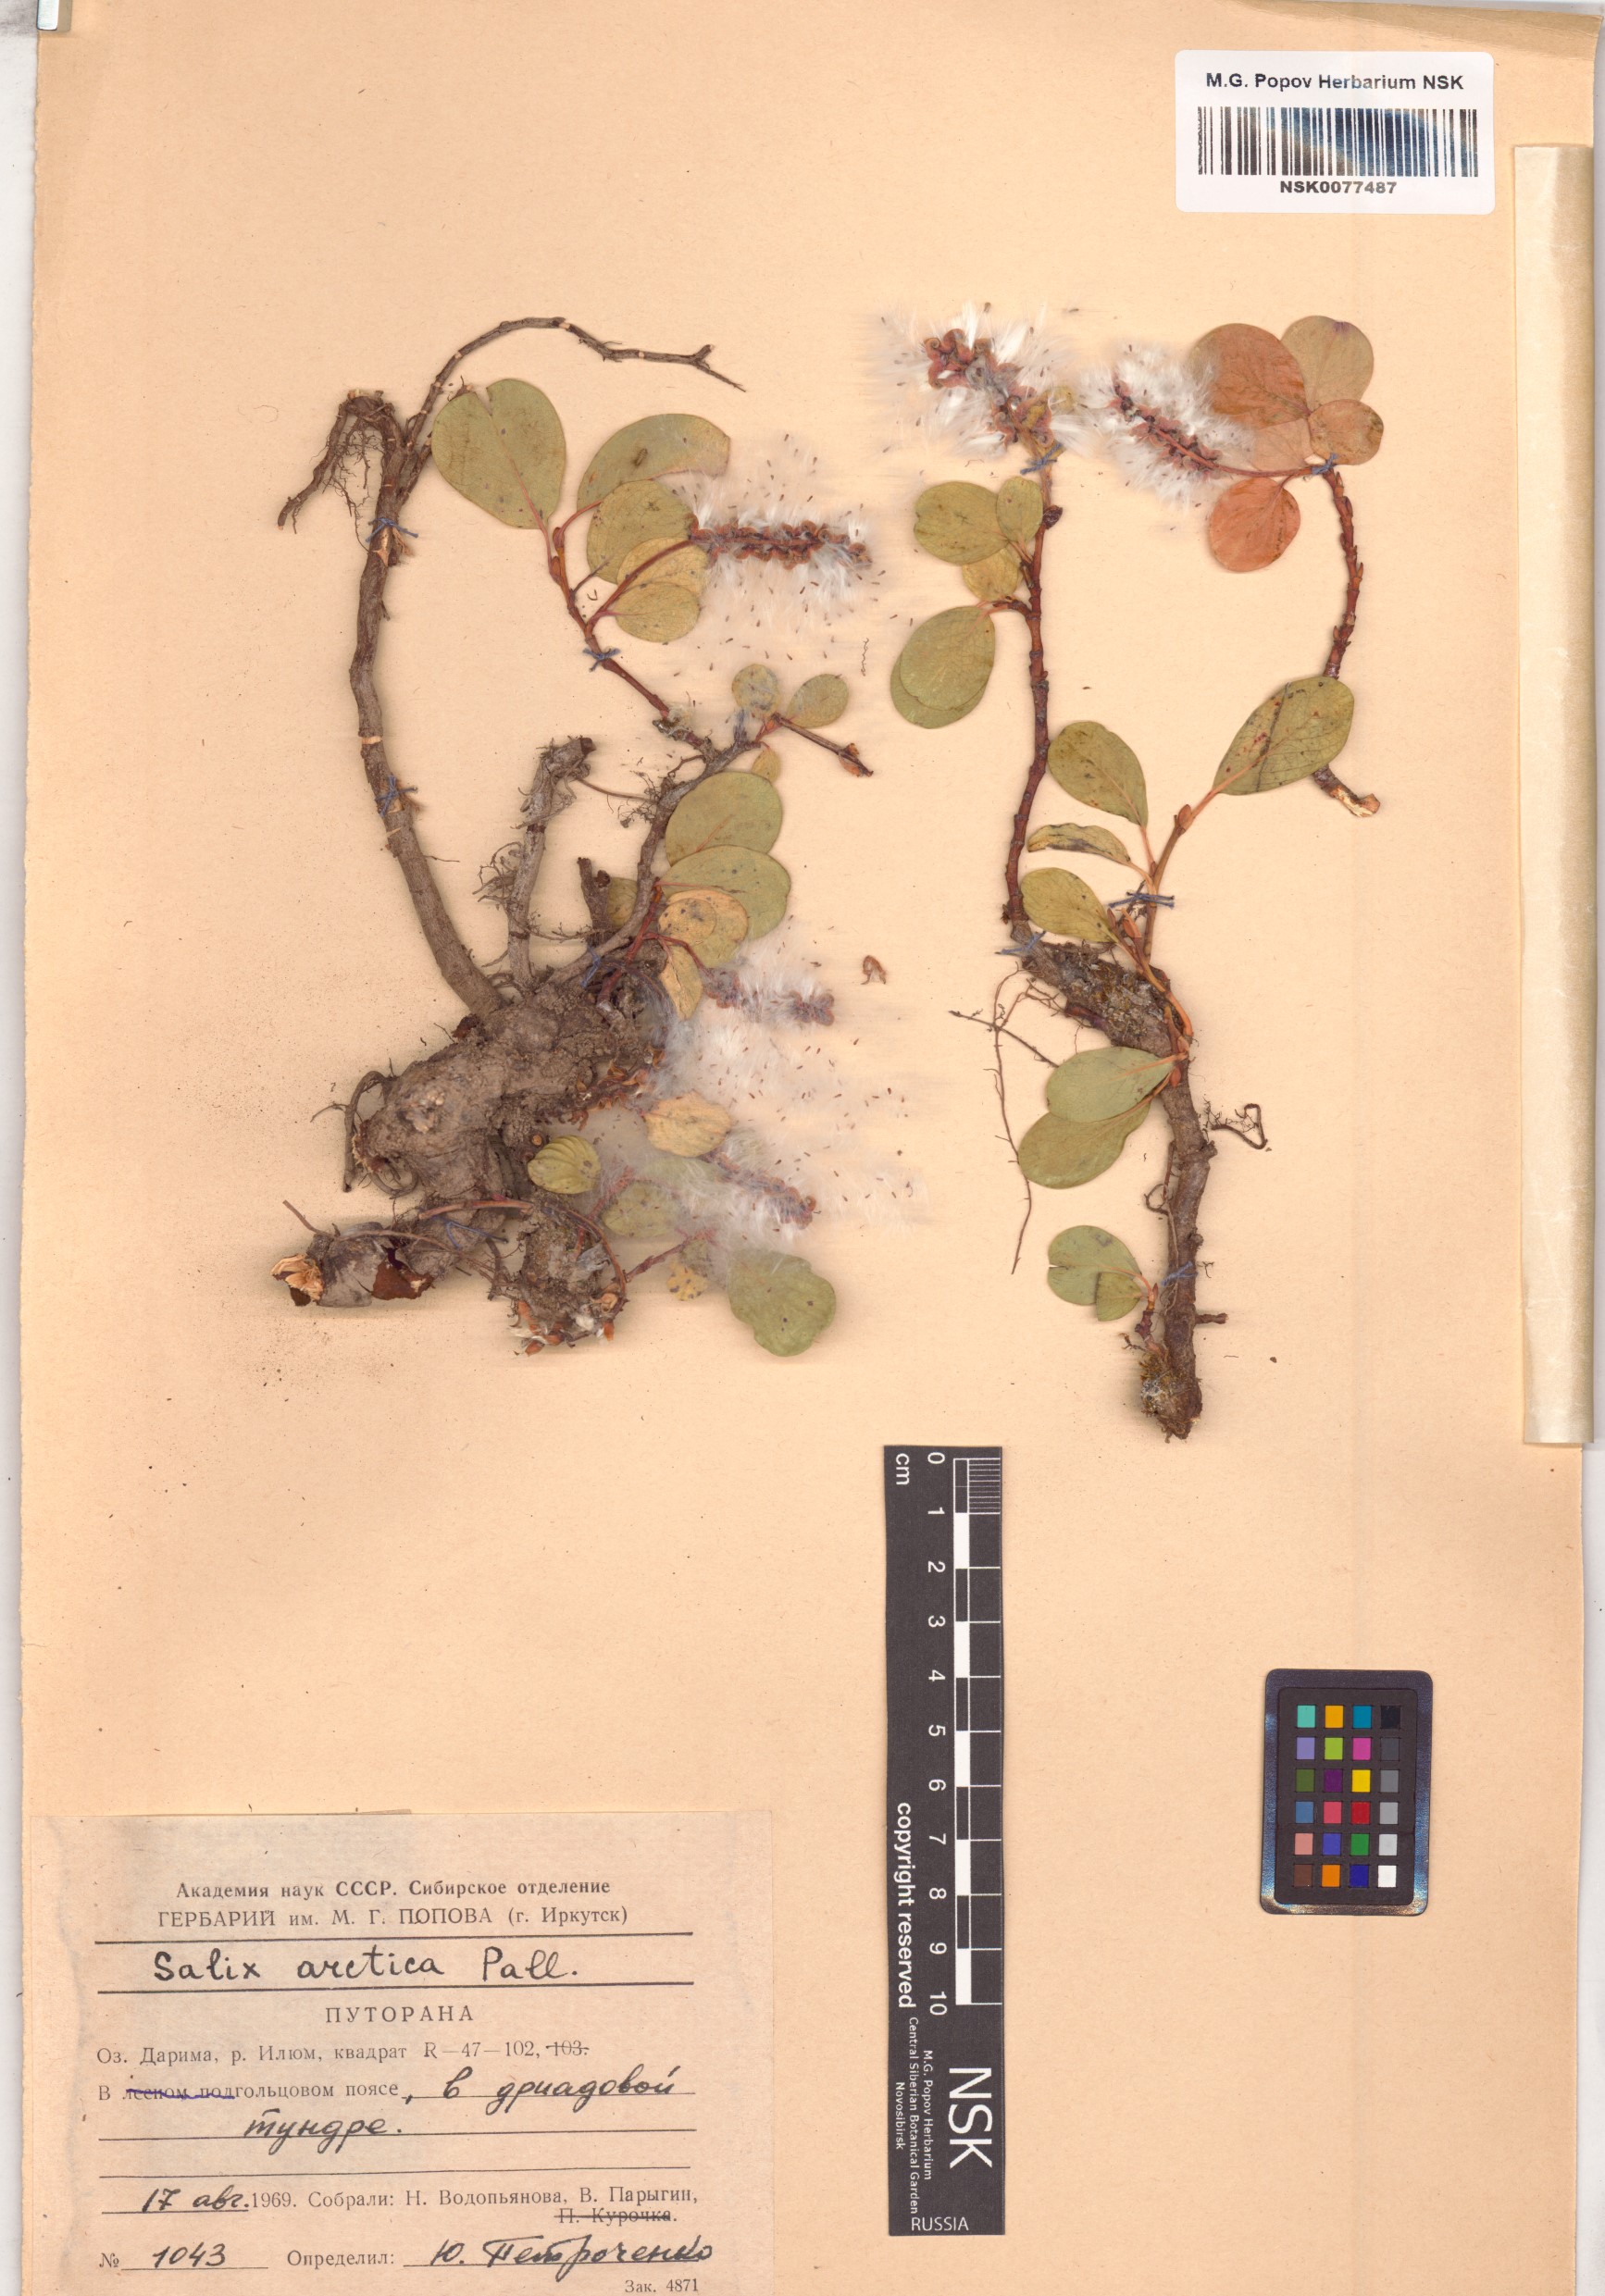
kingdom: Plantae
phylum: Tracheophyta
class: Magnoliopsida
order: Malpighiales
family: Salicaceae
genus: Salix
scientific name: Salix arctica
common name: Arctic willow
